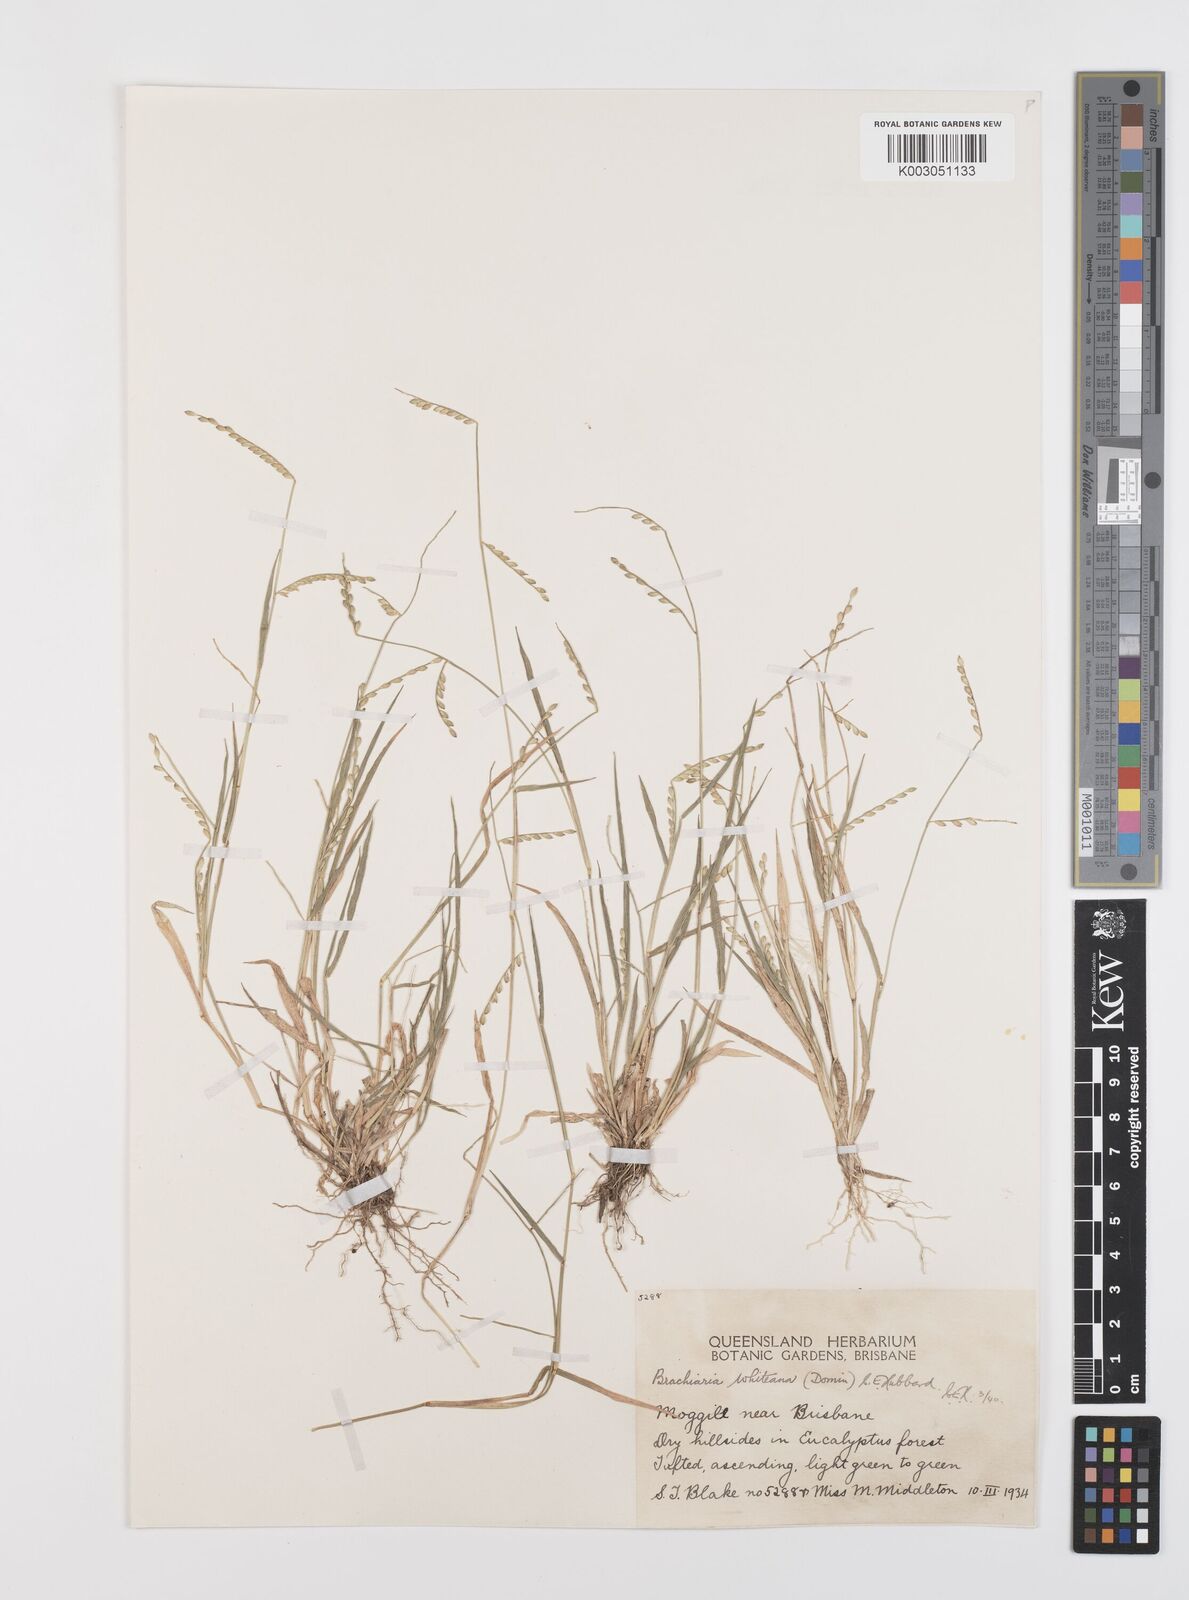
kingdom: Plantae
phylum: Tracheophyta
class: Liliopsida
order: Poales
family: Poaceae
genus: Urochloa
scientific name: Urochloa whiteana
